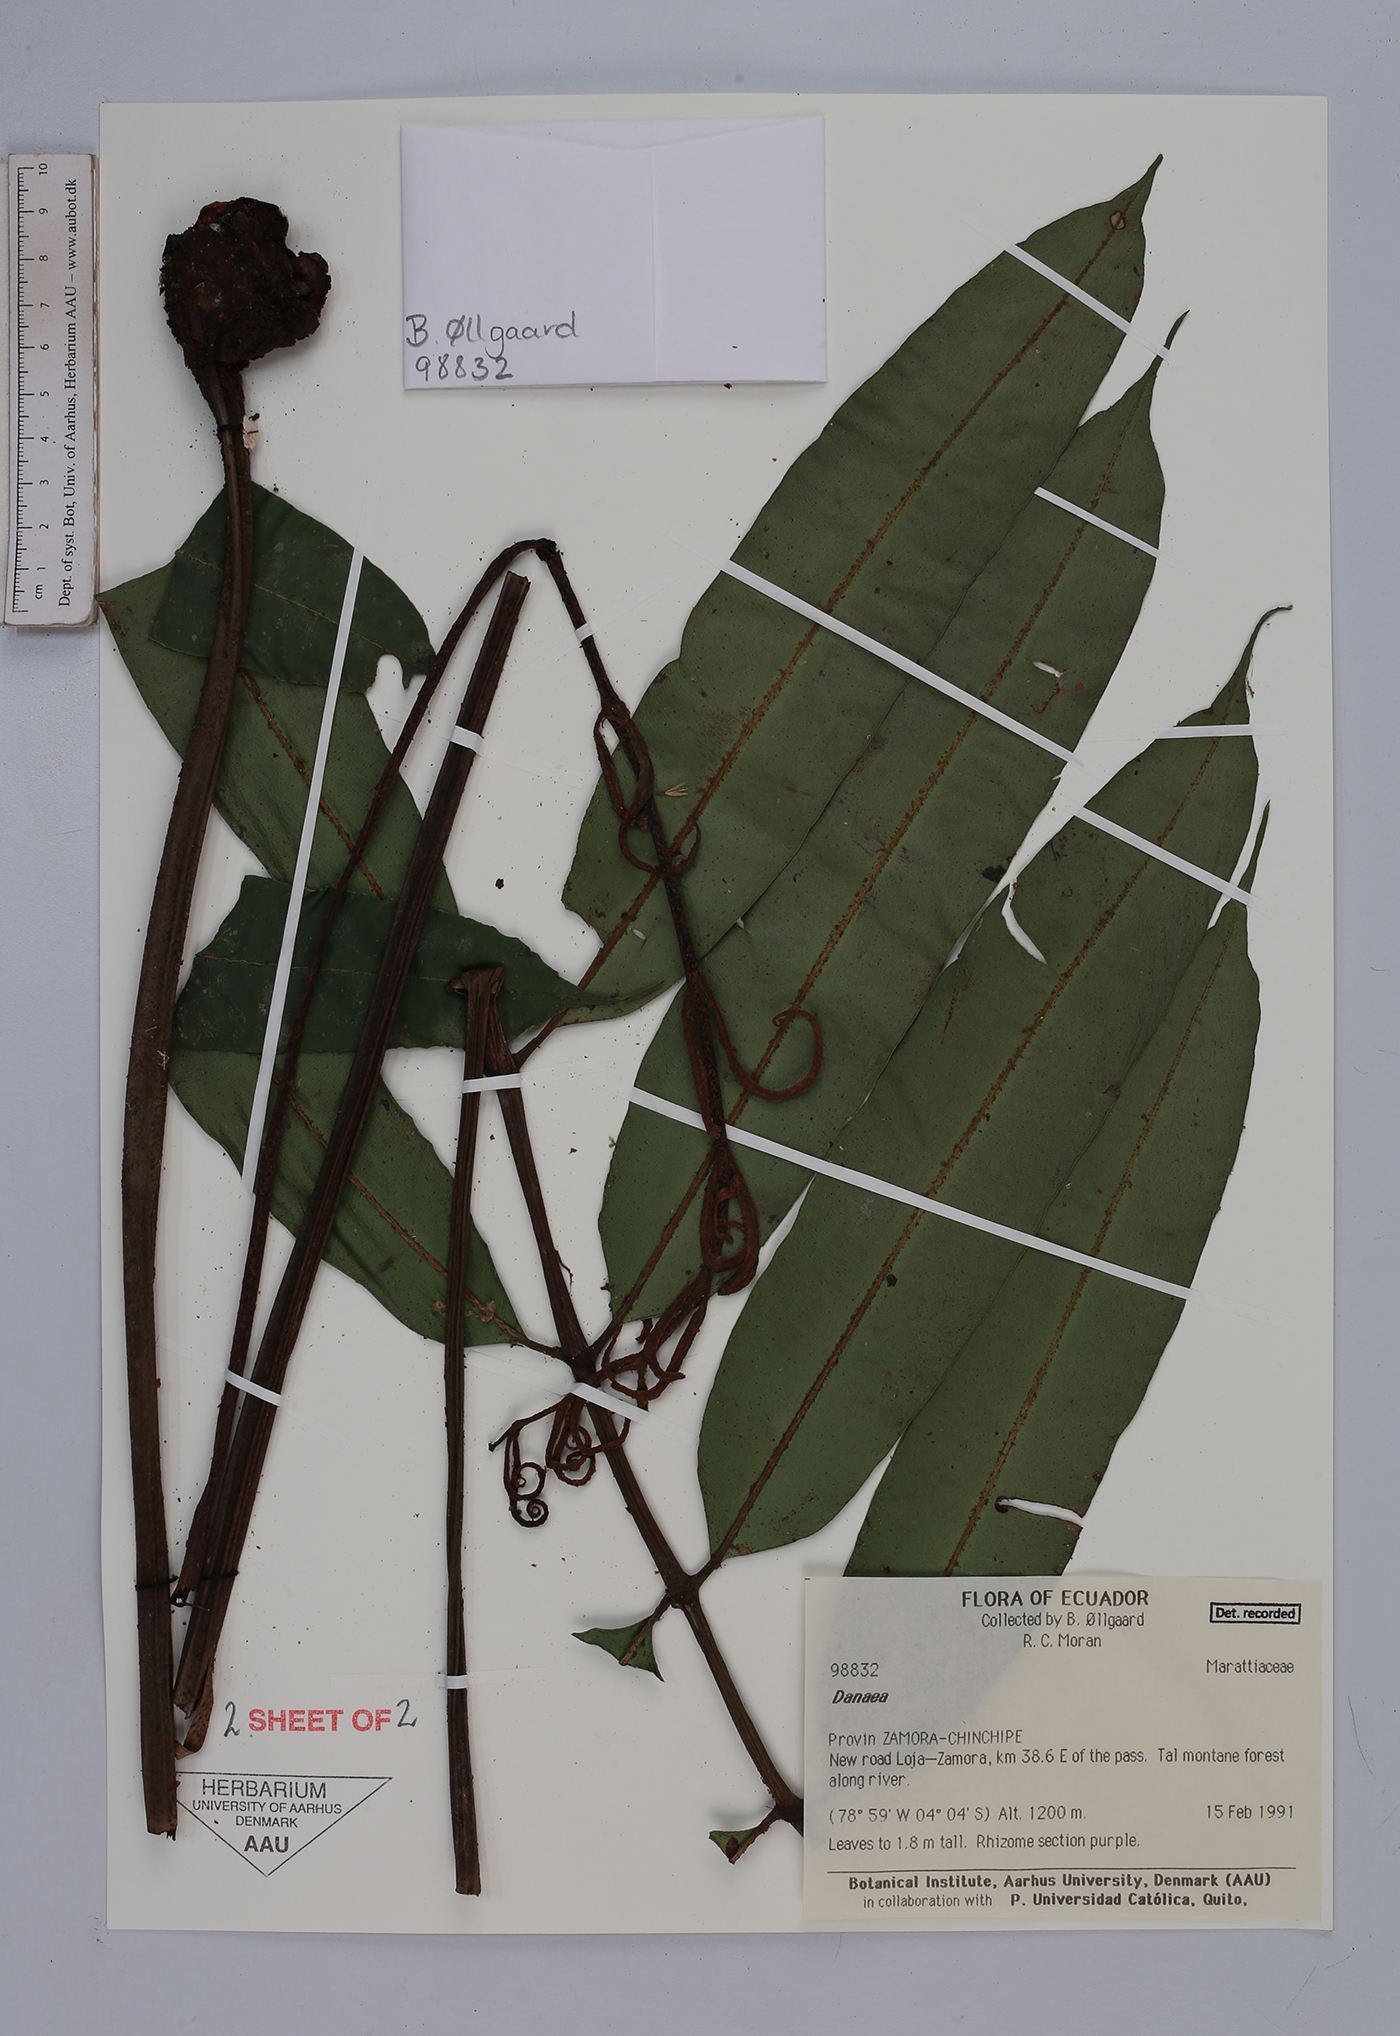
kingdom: Plantae
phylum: Tracheophyta
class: Polypodiopsida
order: Marattiales
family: Marattiaceae
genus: Danaea
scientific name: Danaea
